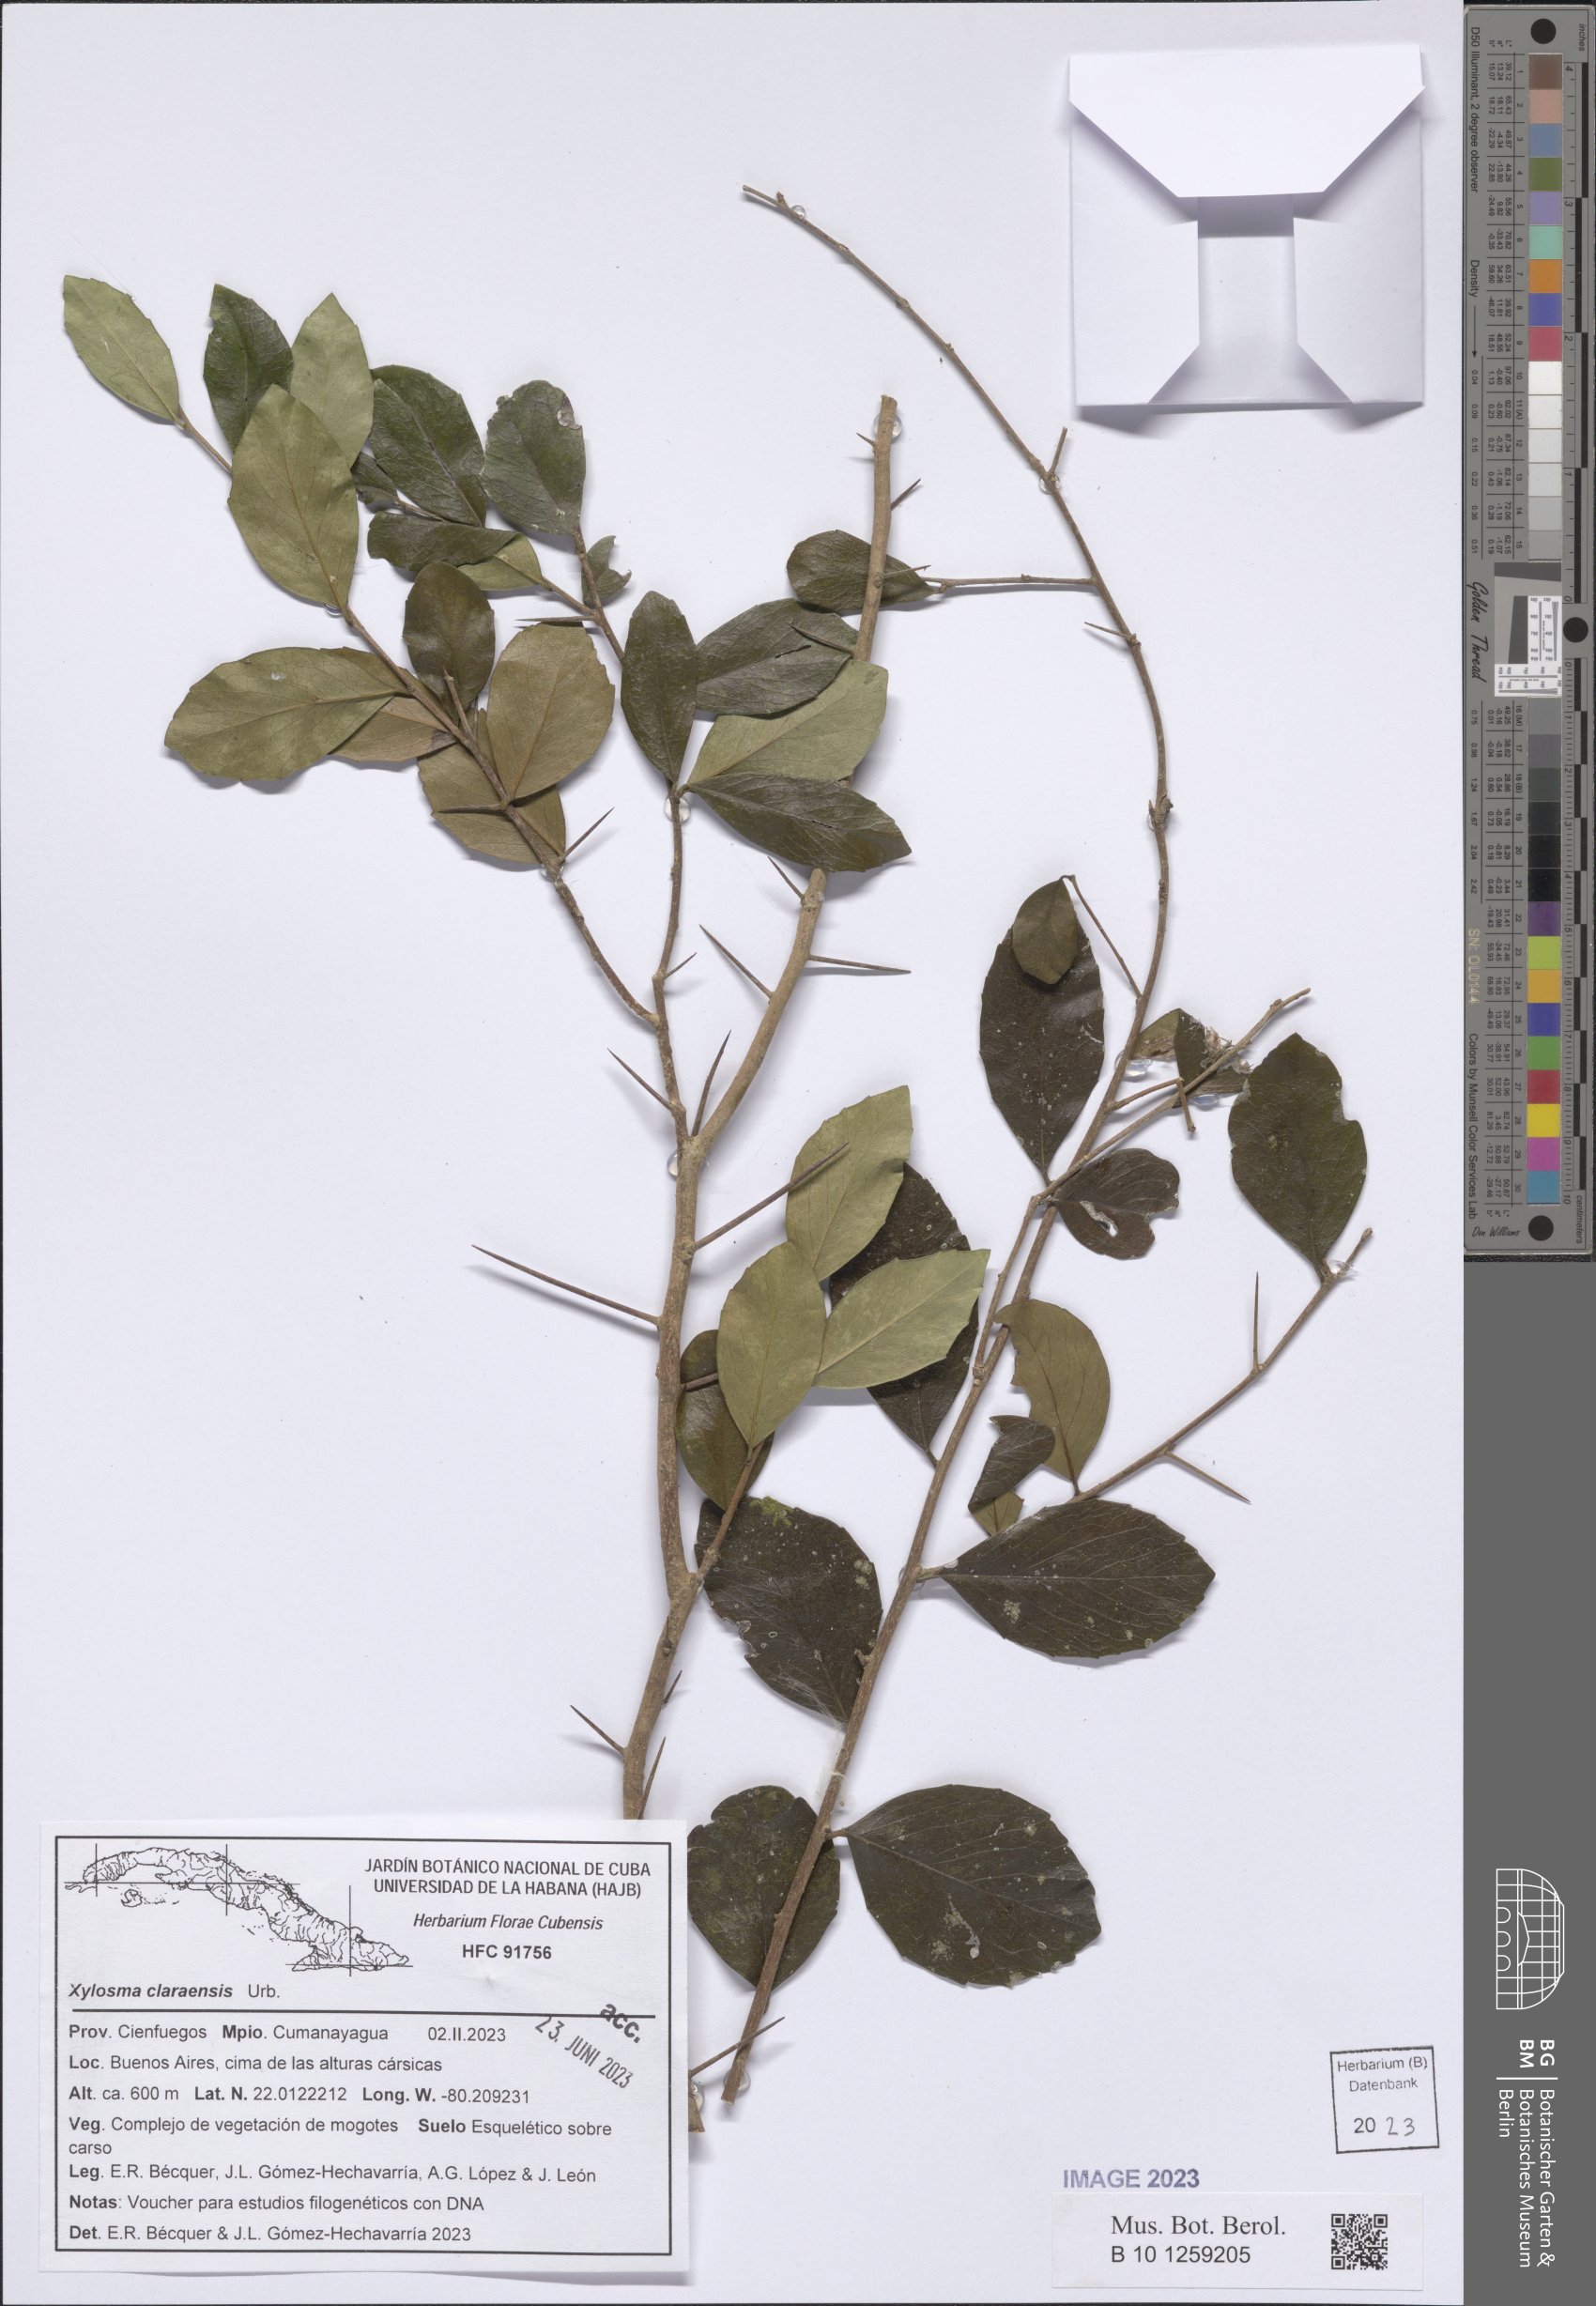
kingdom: Plantae
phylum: Tracheophyta
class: Magnoliopsida
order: Malpighiales
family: Salicaceae
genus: Xylosma
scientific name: Xylosma claraensis
